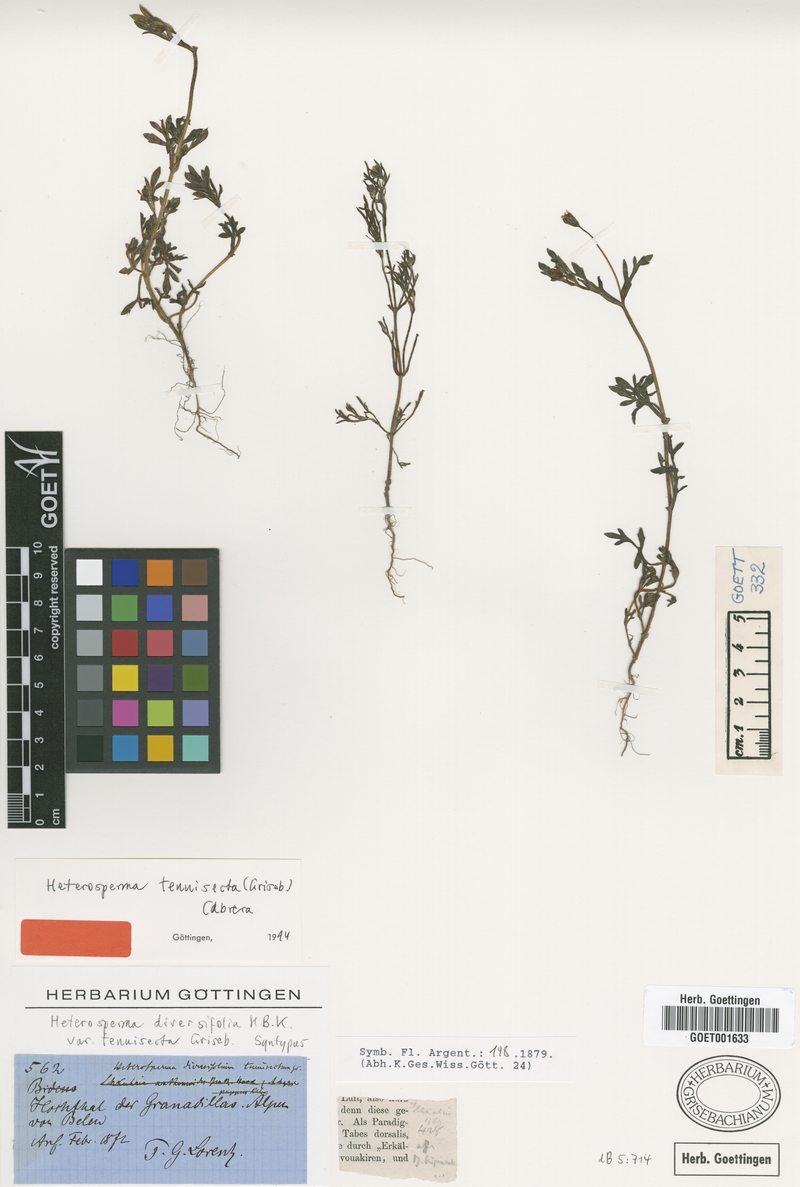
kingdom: Plantae
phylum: Tracheophyta
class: Magnoliopsida
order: Asterales
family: Asteraceae
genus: Heterosperma
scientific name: Heterosperma tenuisectum
